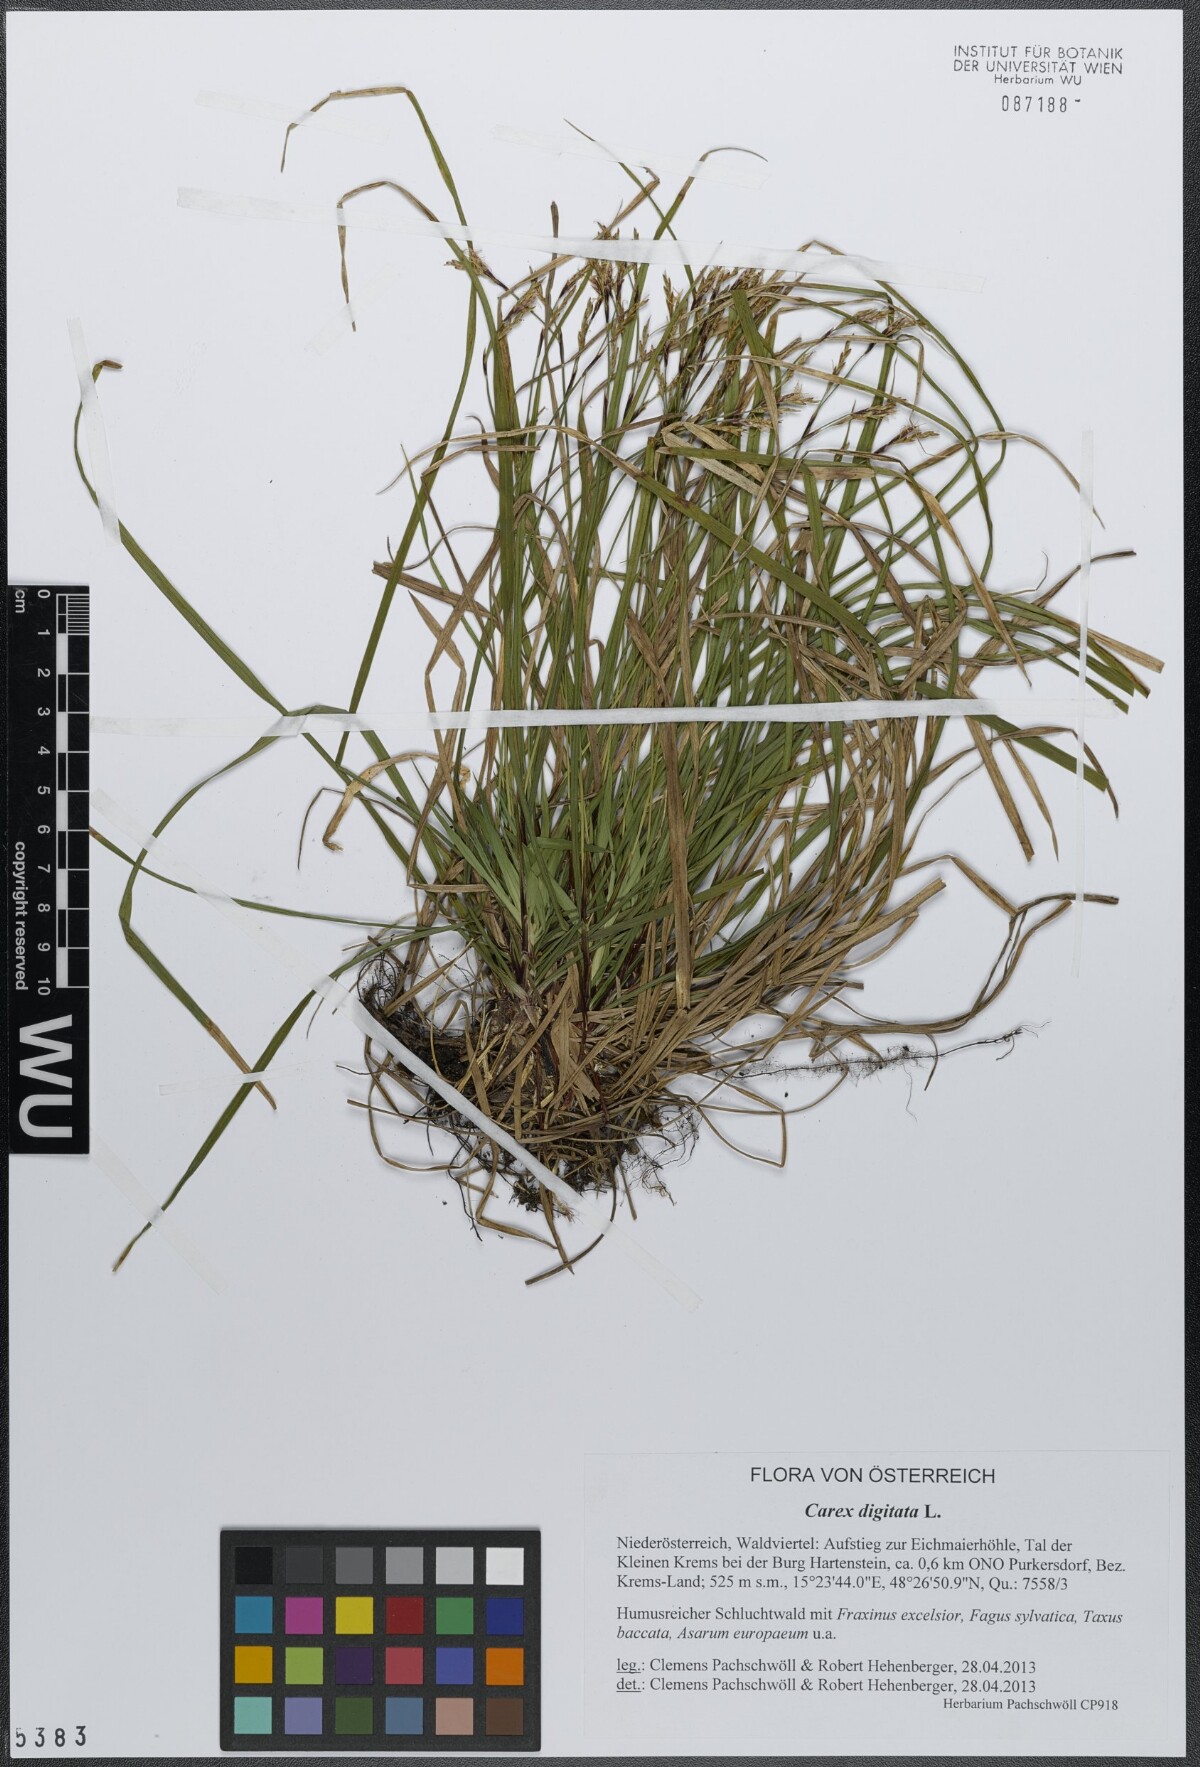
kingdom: Plantae
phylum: Tracheophyta
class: Liliopsida
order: Poales
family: Cyperaceae
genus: Carex
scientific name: Carex digitata
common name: Fingered sedge
